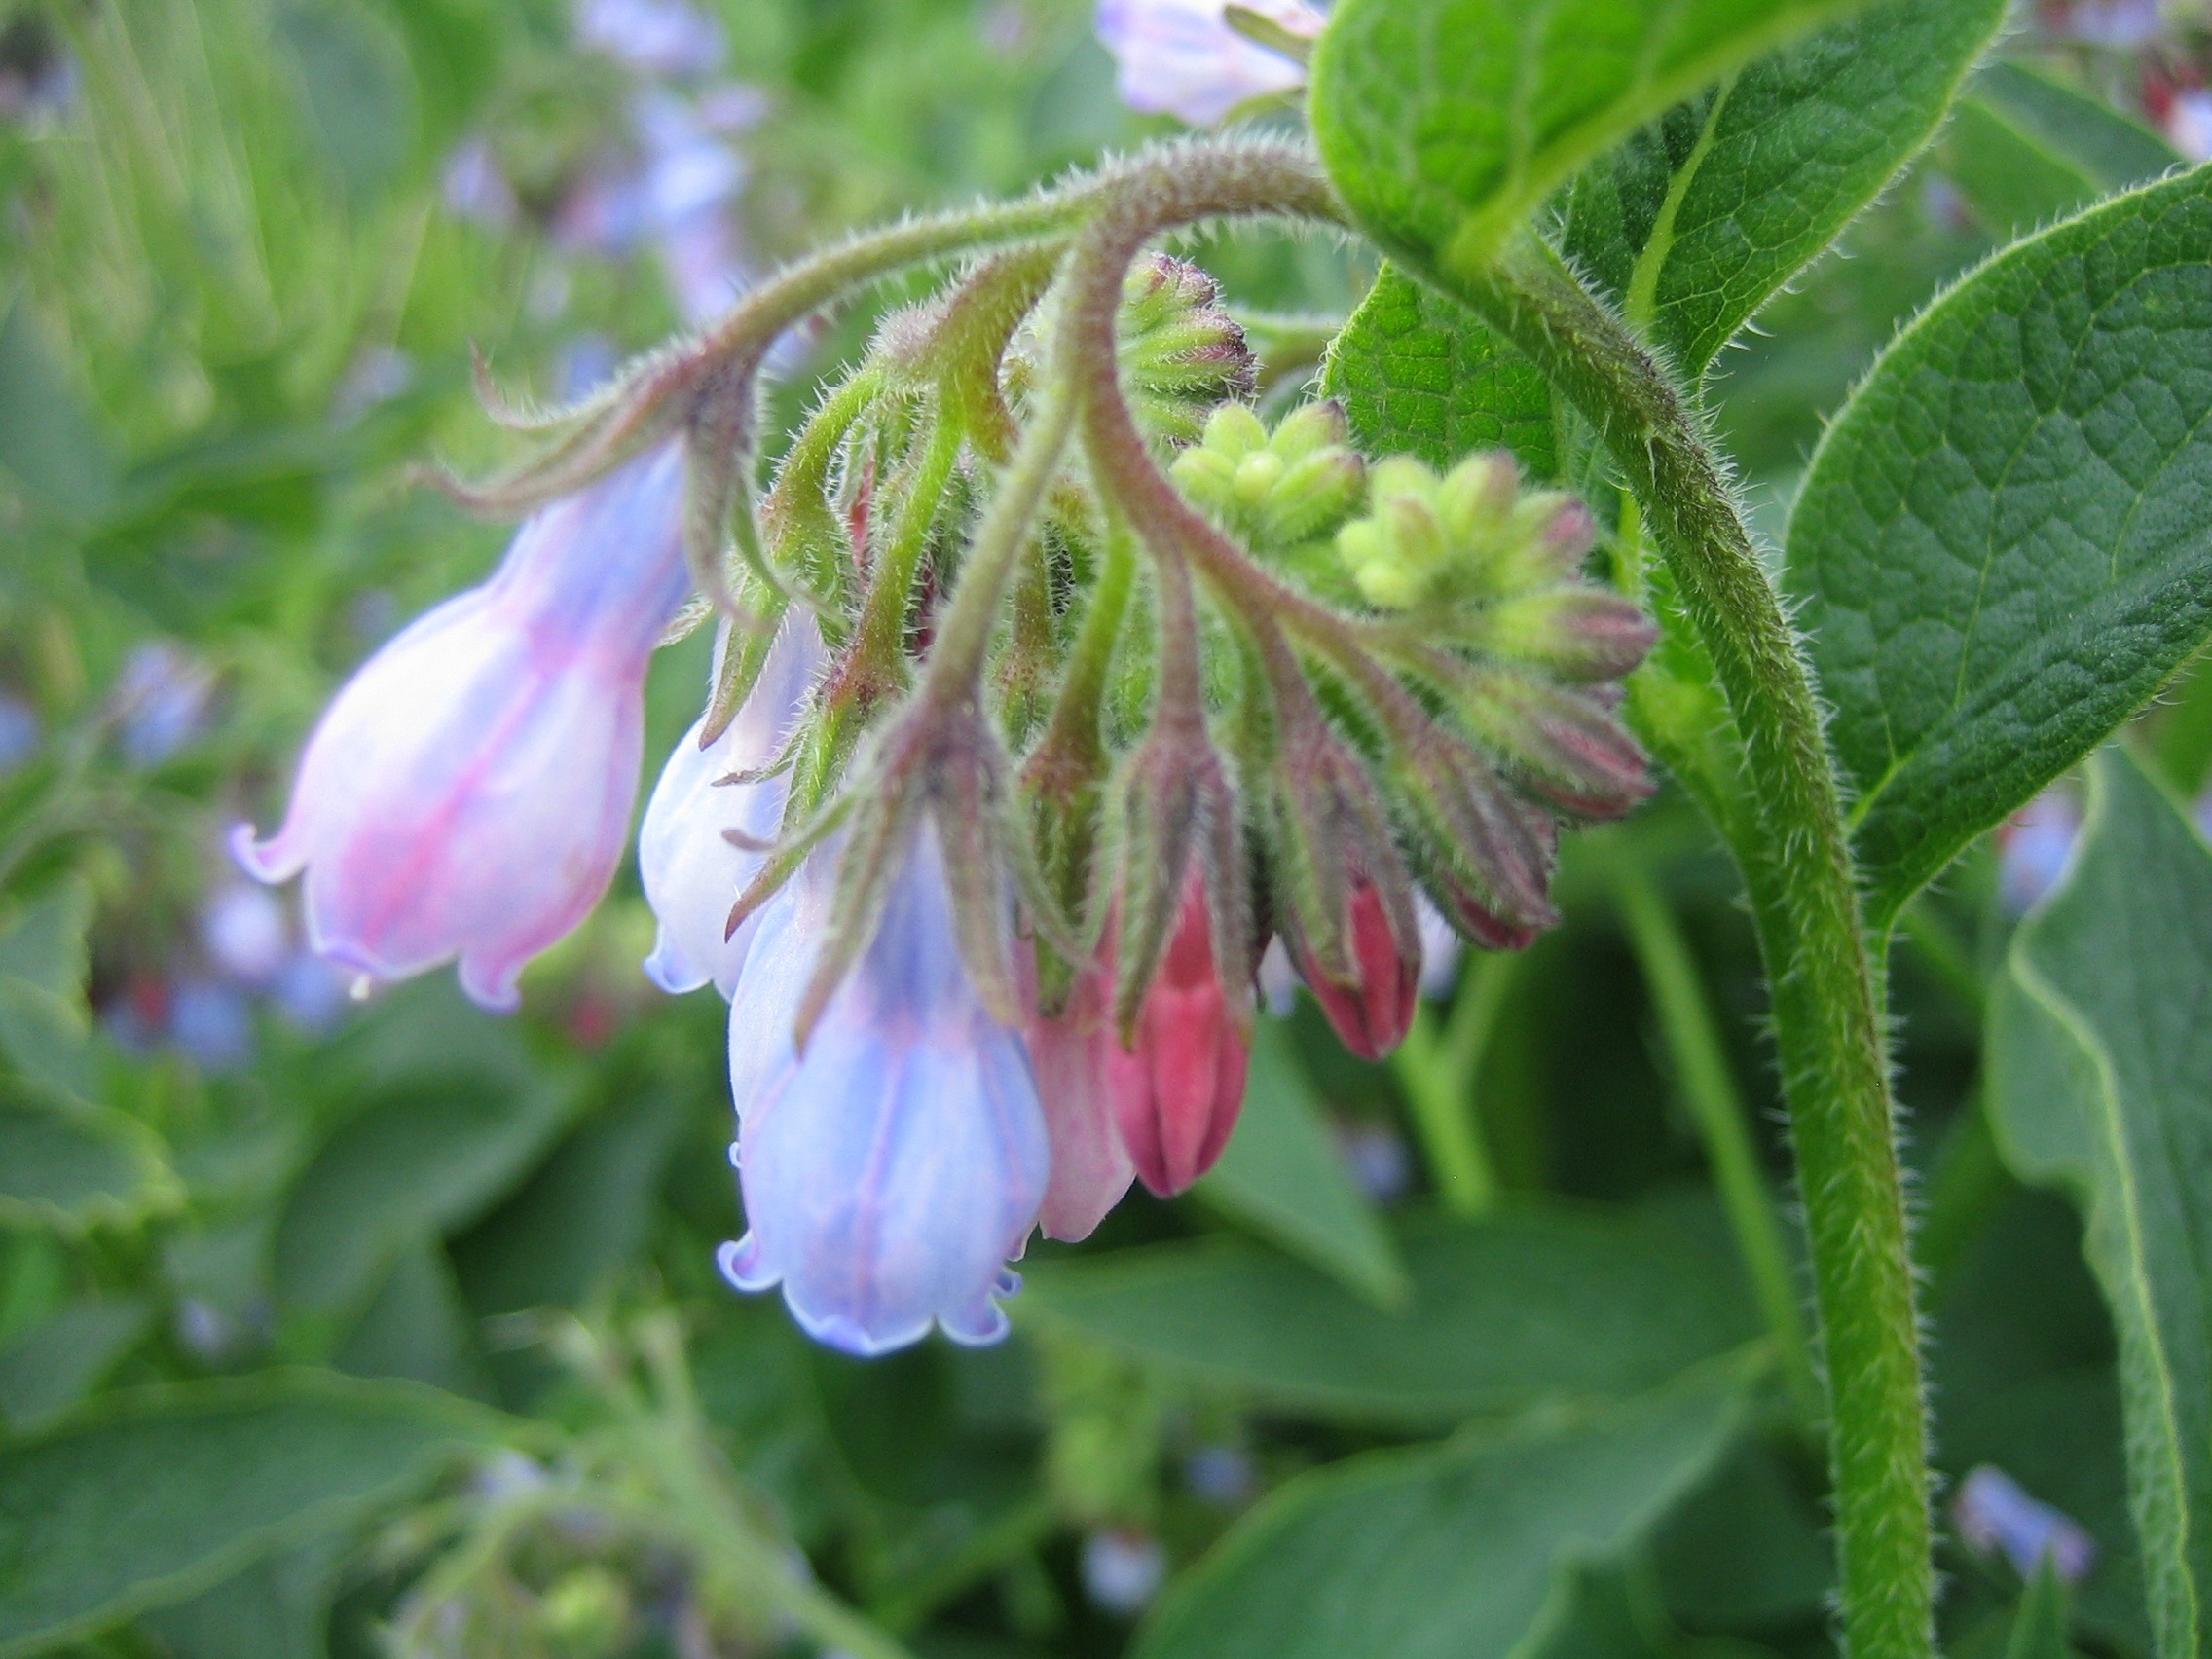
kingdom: Plantae
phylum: Tracheophyta
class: Magnoliopsida
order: Boraginales
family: Boraginaceae
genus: Symphytum
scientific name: Symphytum uplandicum
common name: Foder-kulsukker
